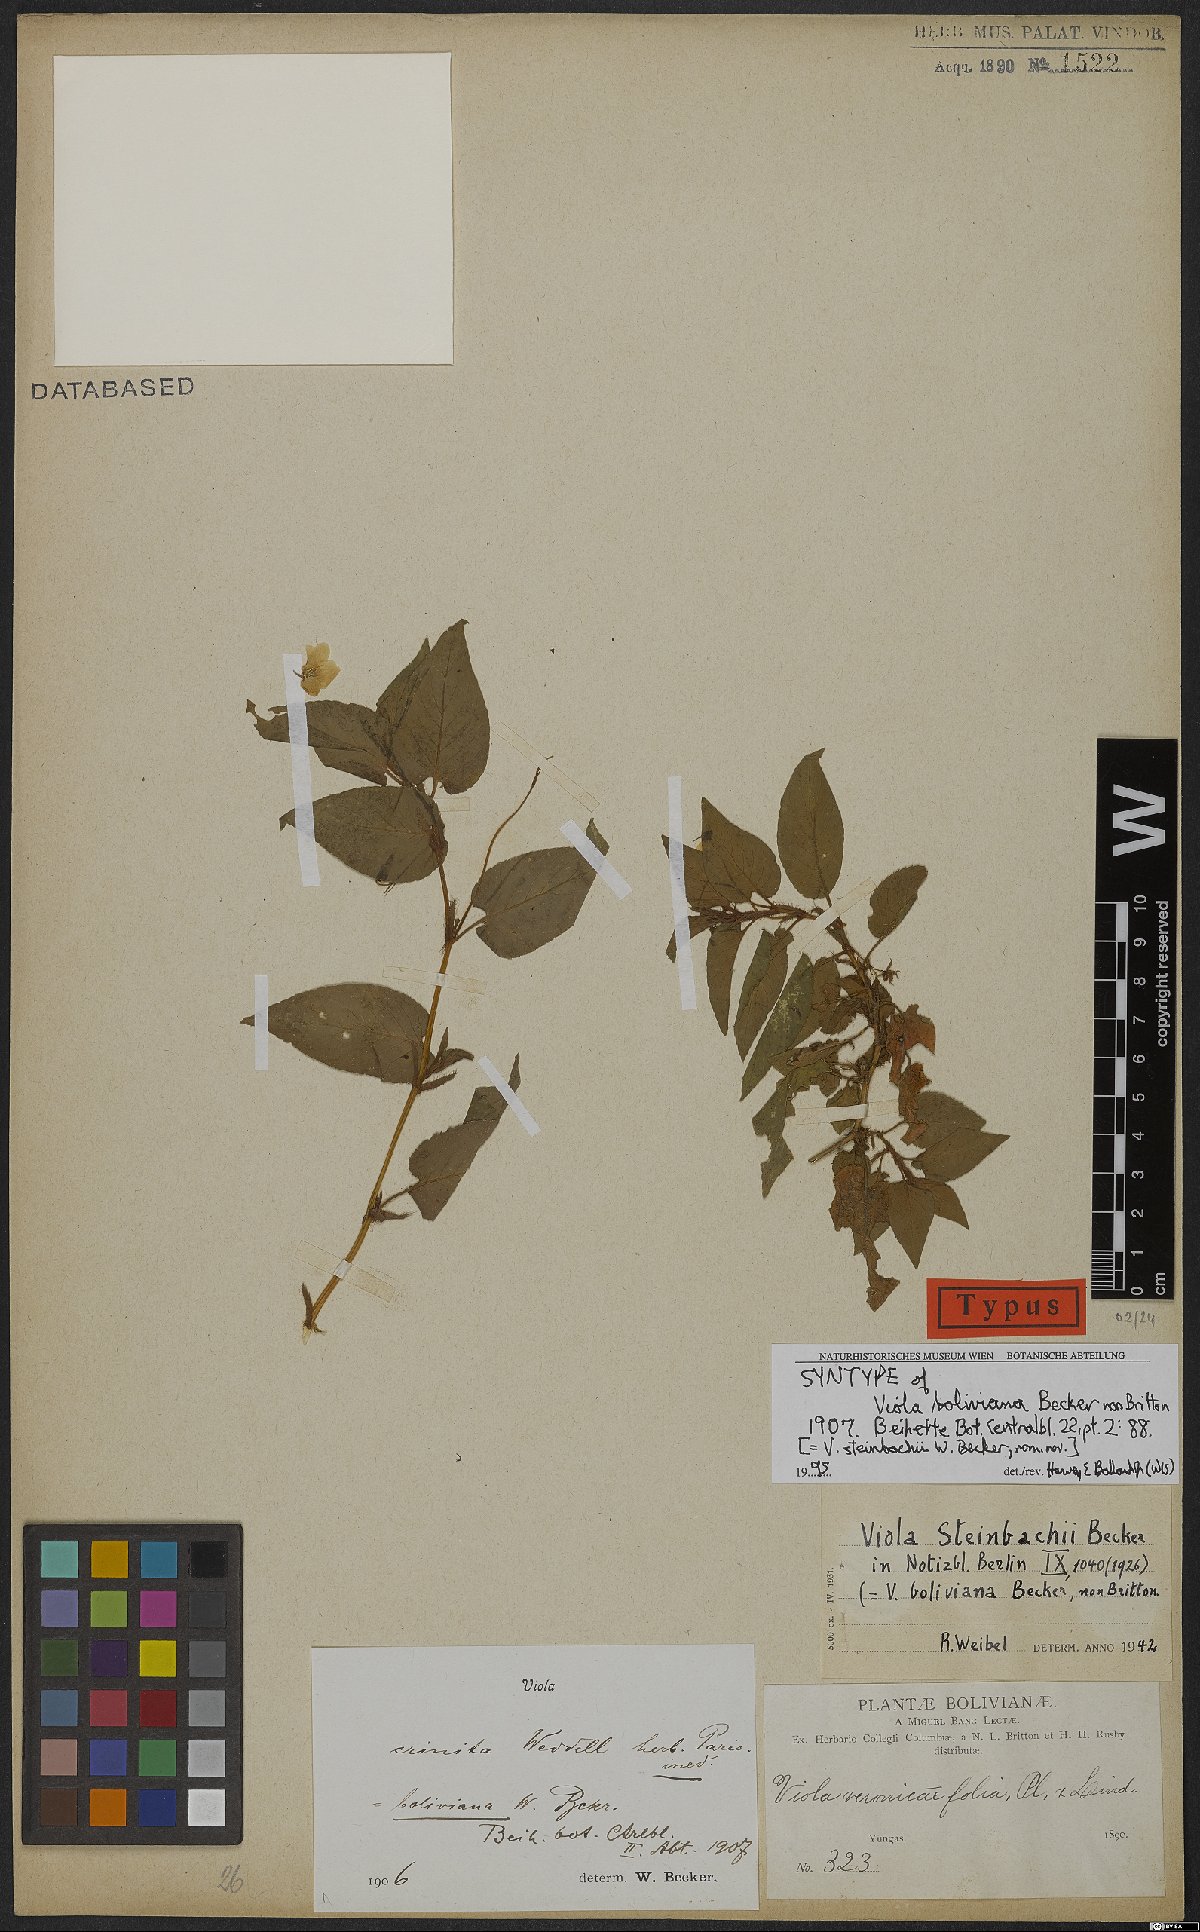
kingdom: Plantae
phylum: Tracheophyta
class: Magnoliopsida
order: Malpighiales
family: Violaceae
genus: Viola
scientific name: Viola steinbachii
